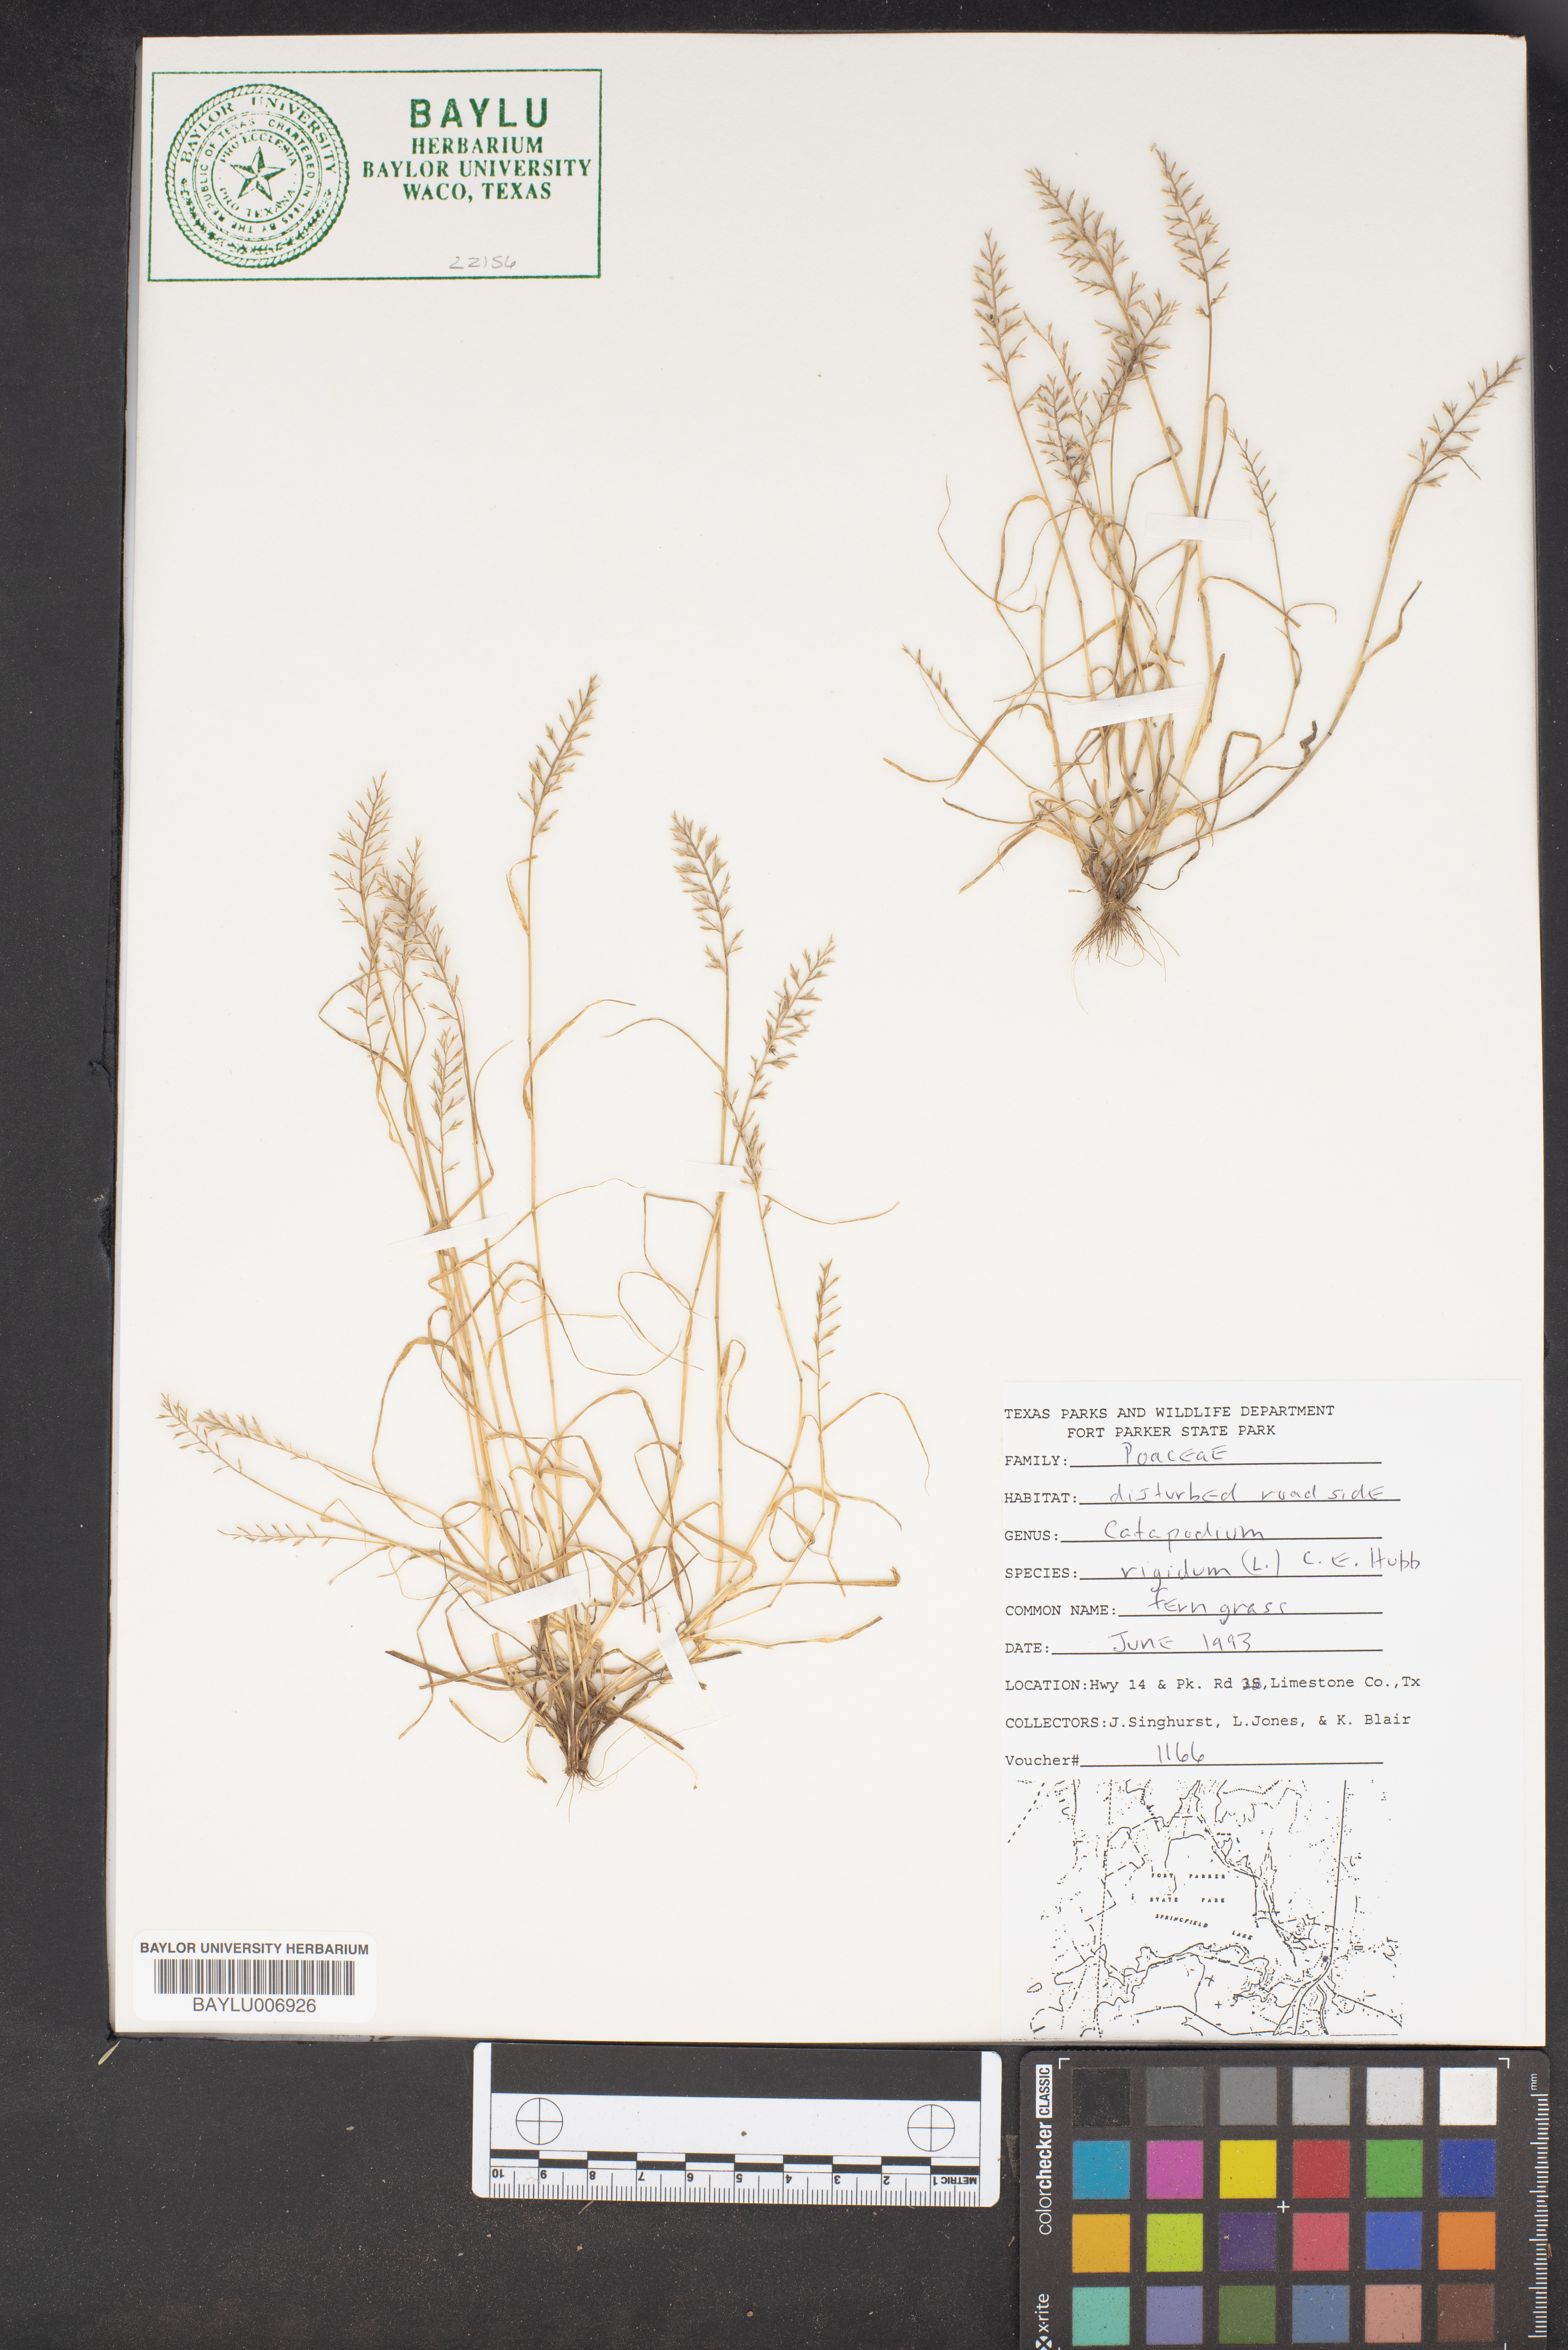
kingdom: Plantae
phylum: Tracheophyta
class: Liliopsida
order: Poales
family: Poaceae
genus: Catapodium
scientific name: Catapodium rigidum
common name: Fern-grass
